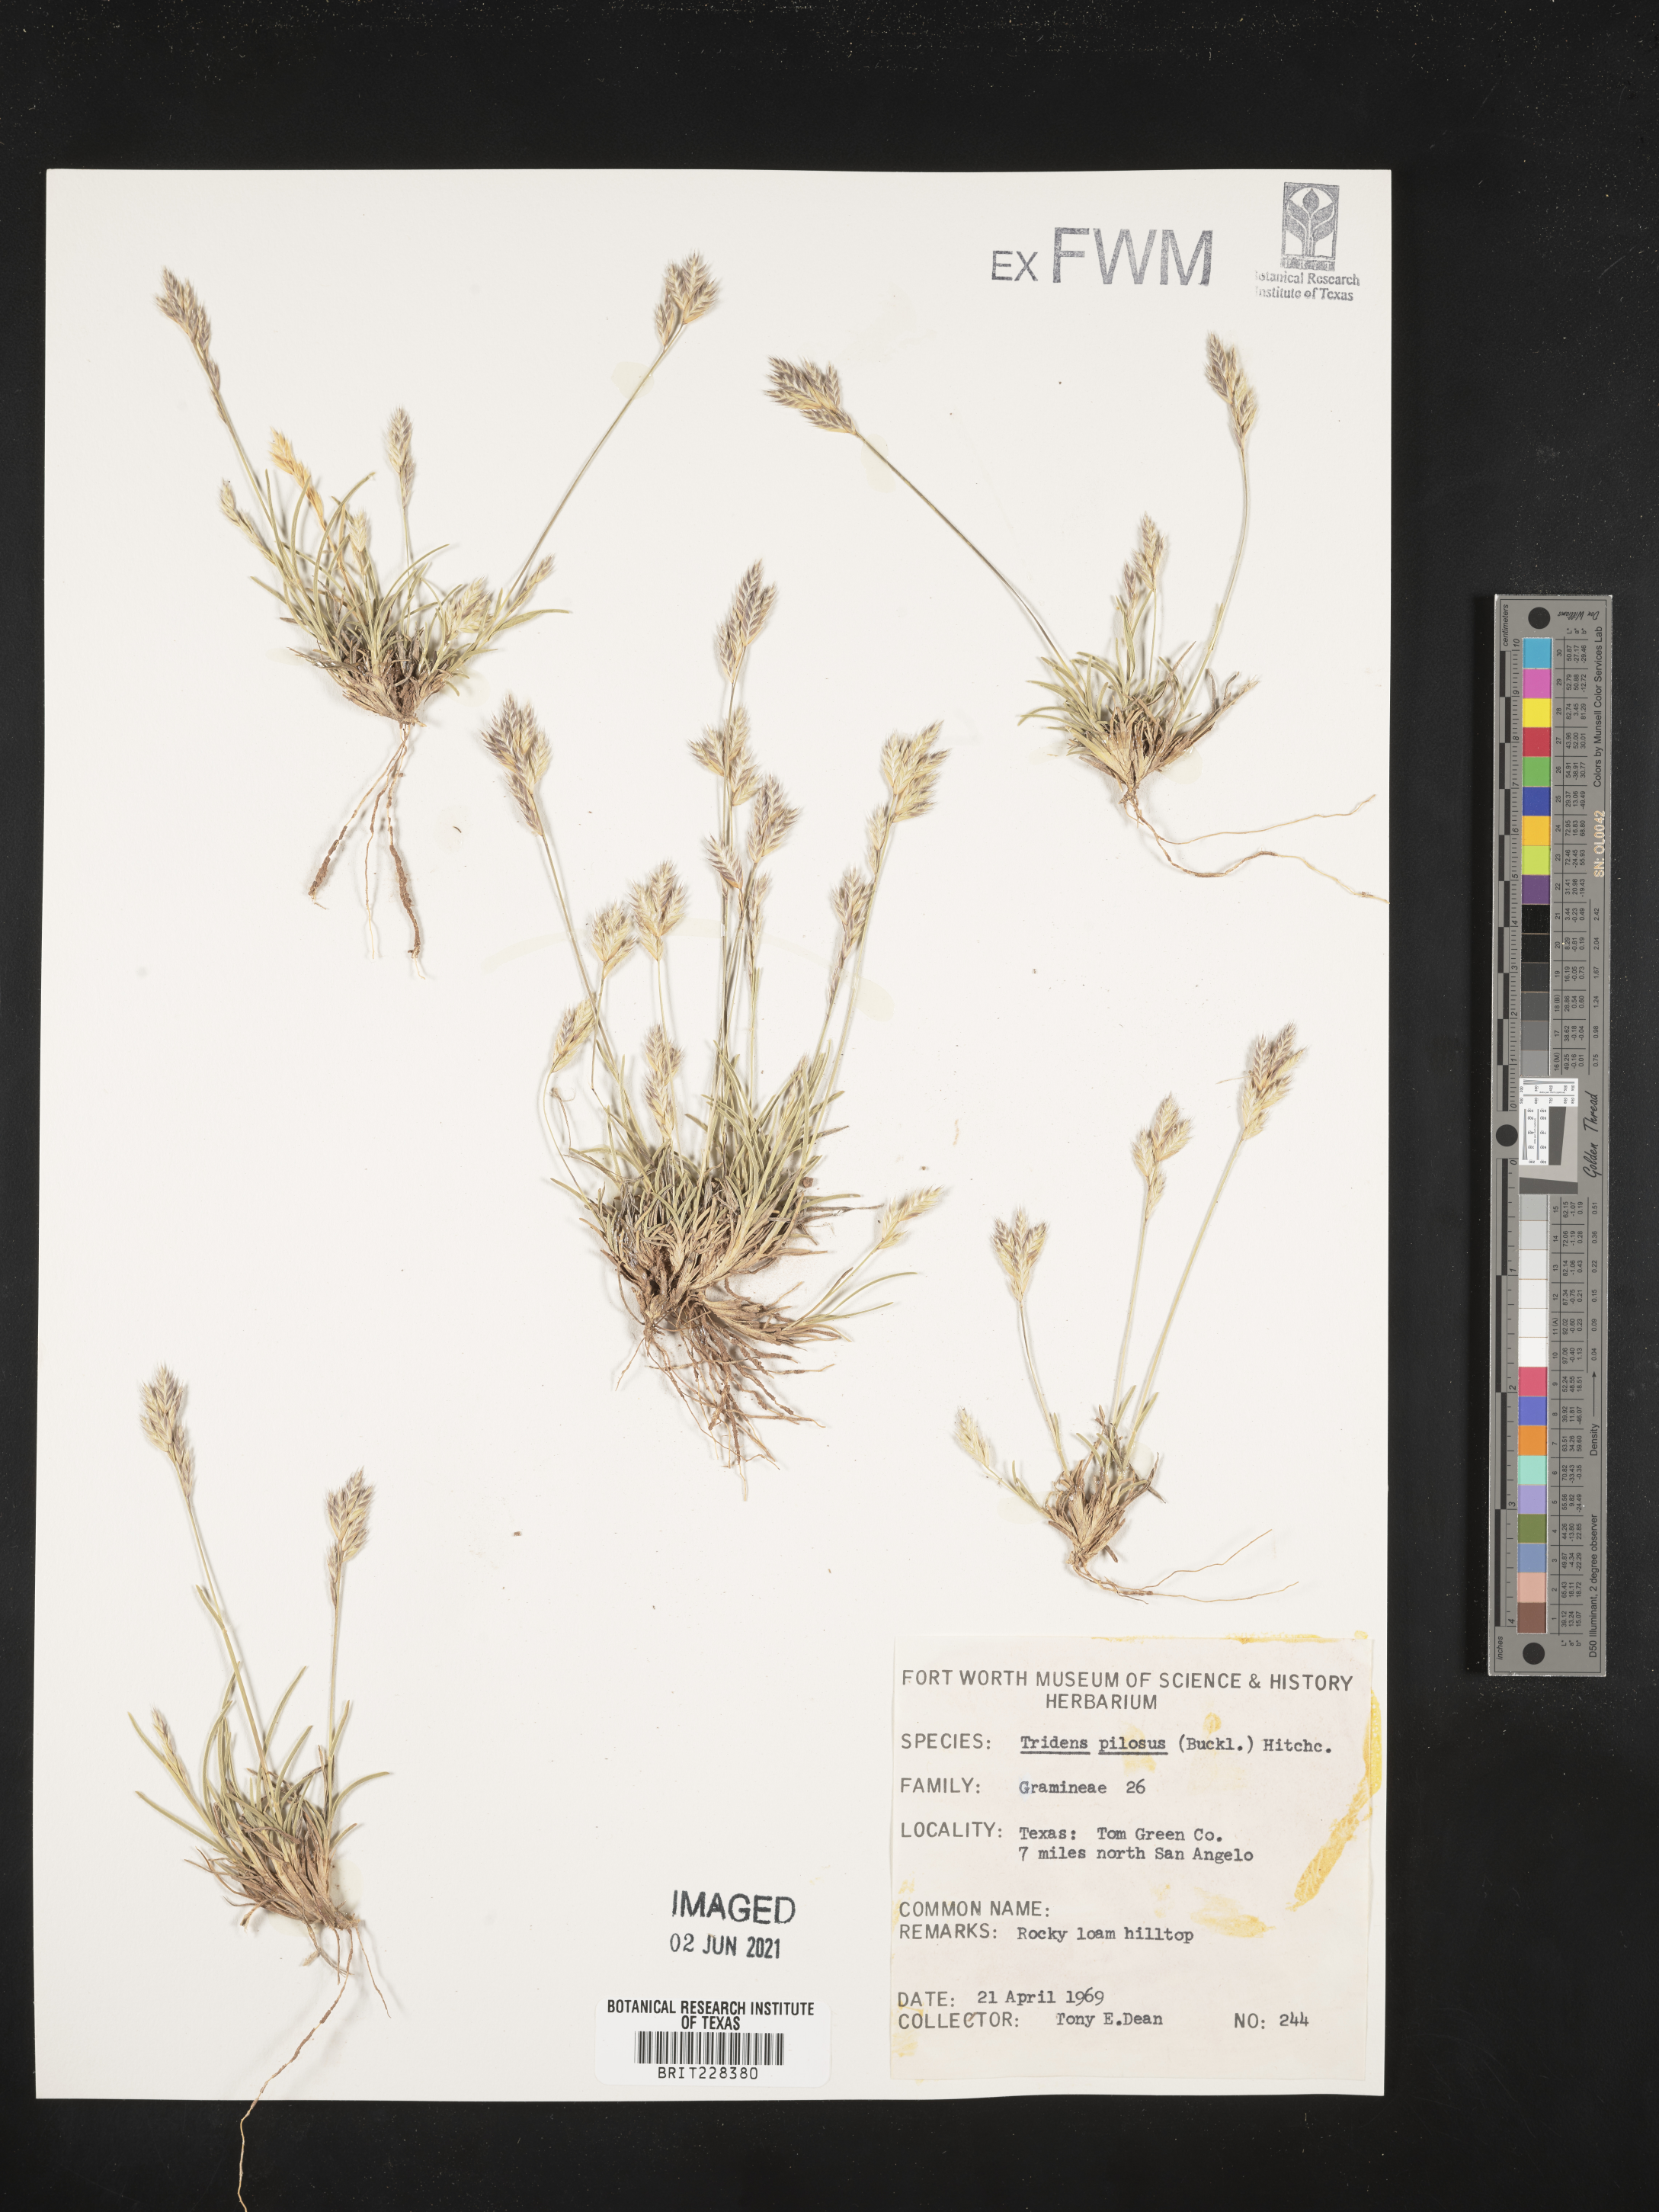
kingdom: Plantae
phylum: Tracheophyta
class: Liliopsida
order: Poales
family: Poaceae
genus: Tridentopsis
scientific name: Tridentopsis mutica
